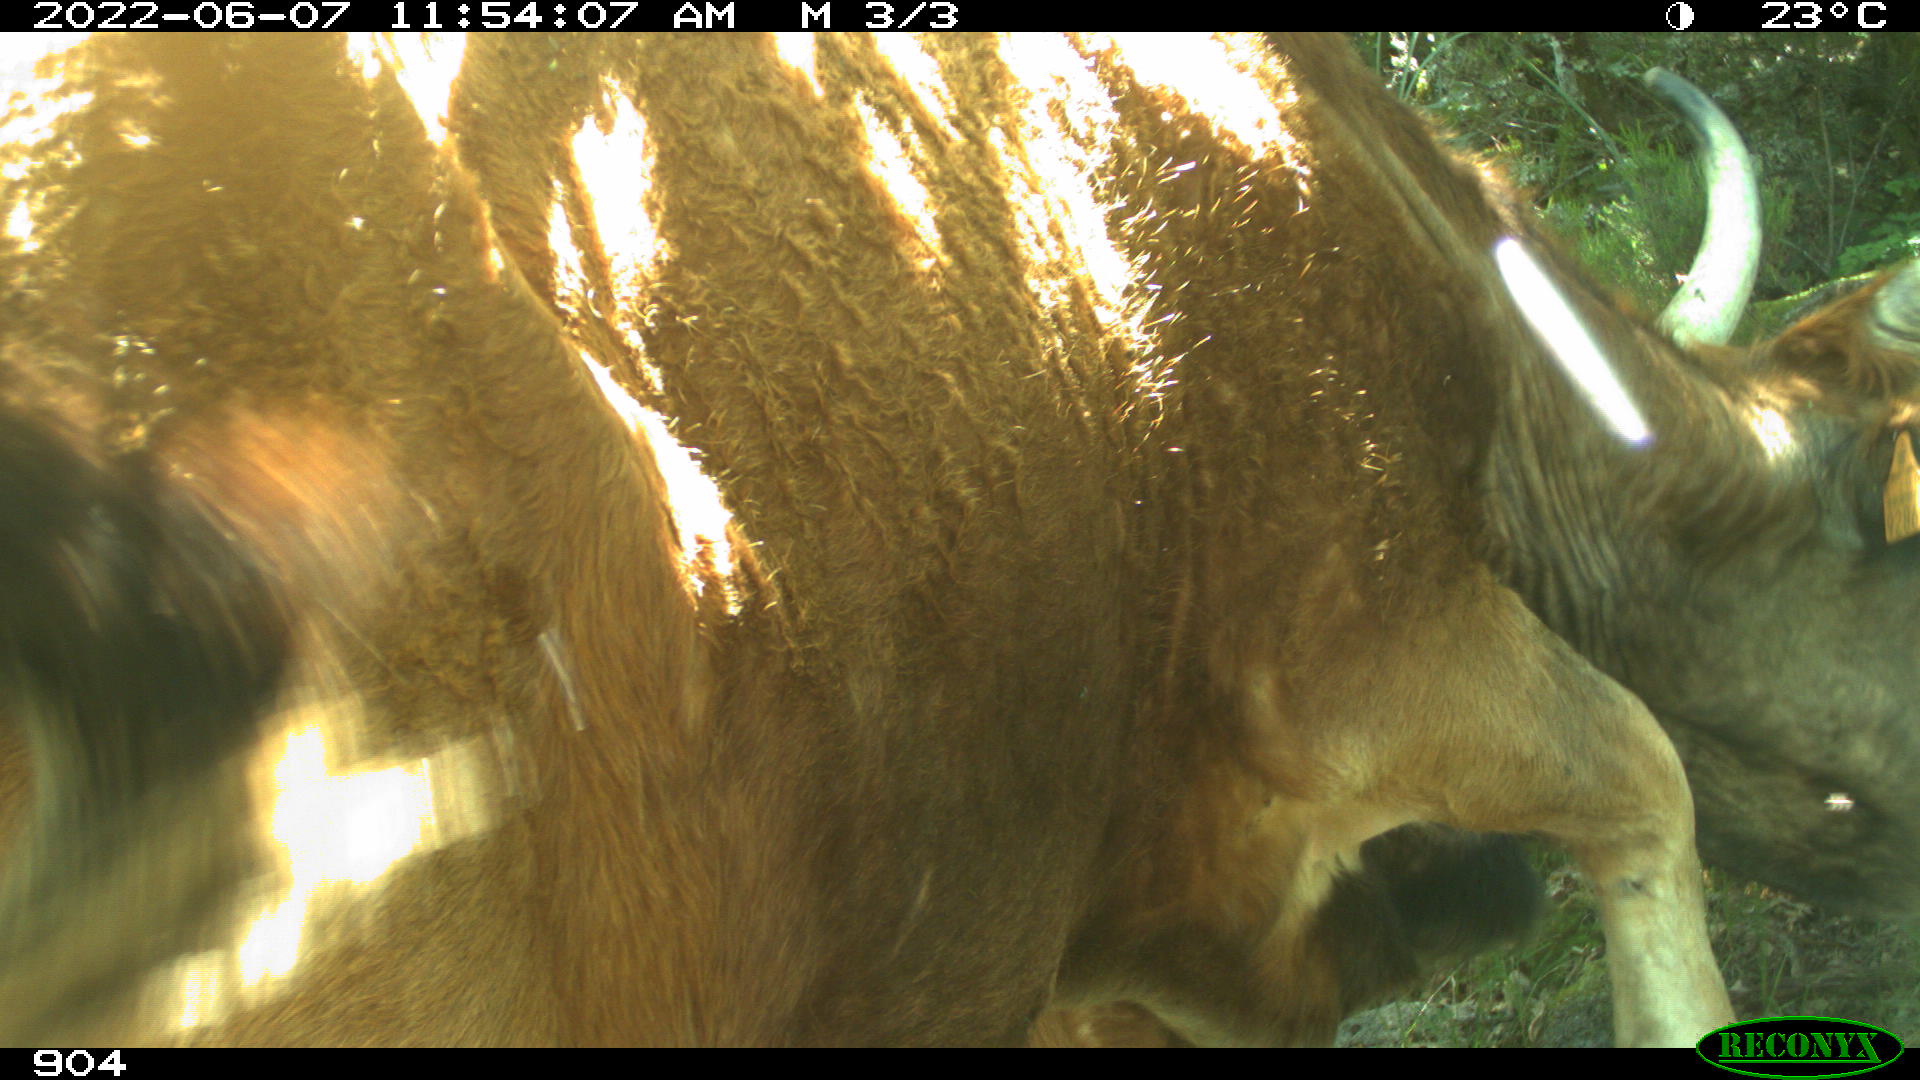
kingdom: Animalia
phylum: Chordata
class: Mammalia
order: Artiodactyla
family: Bovidae
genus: Bos
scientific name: Bos taurus
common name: Domesticated cattle
